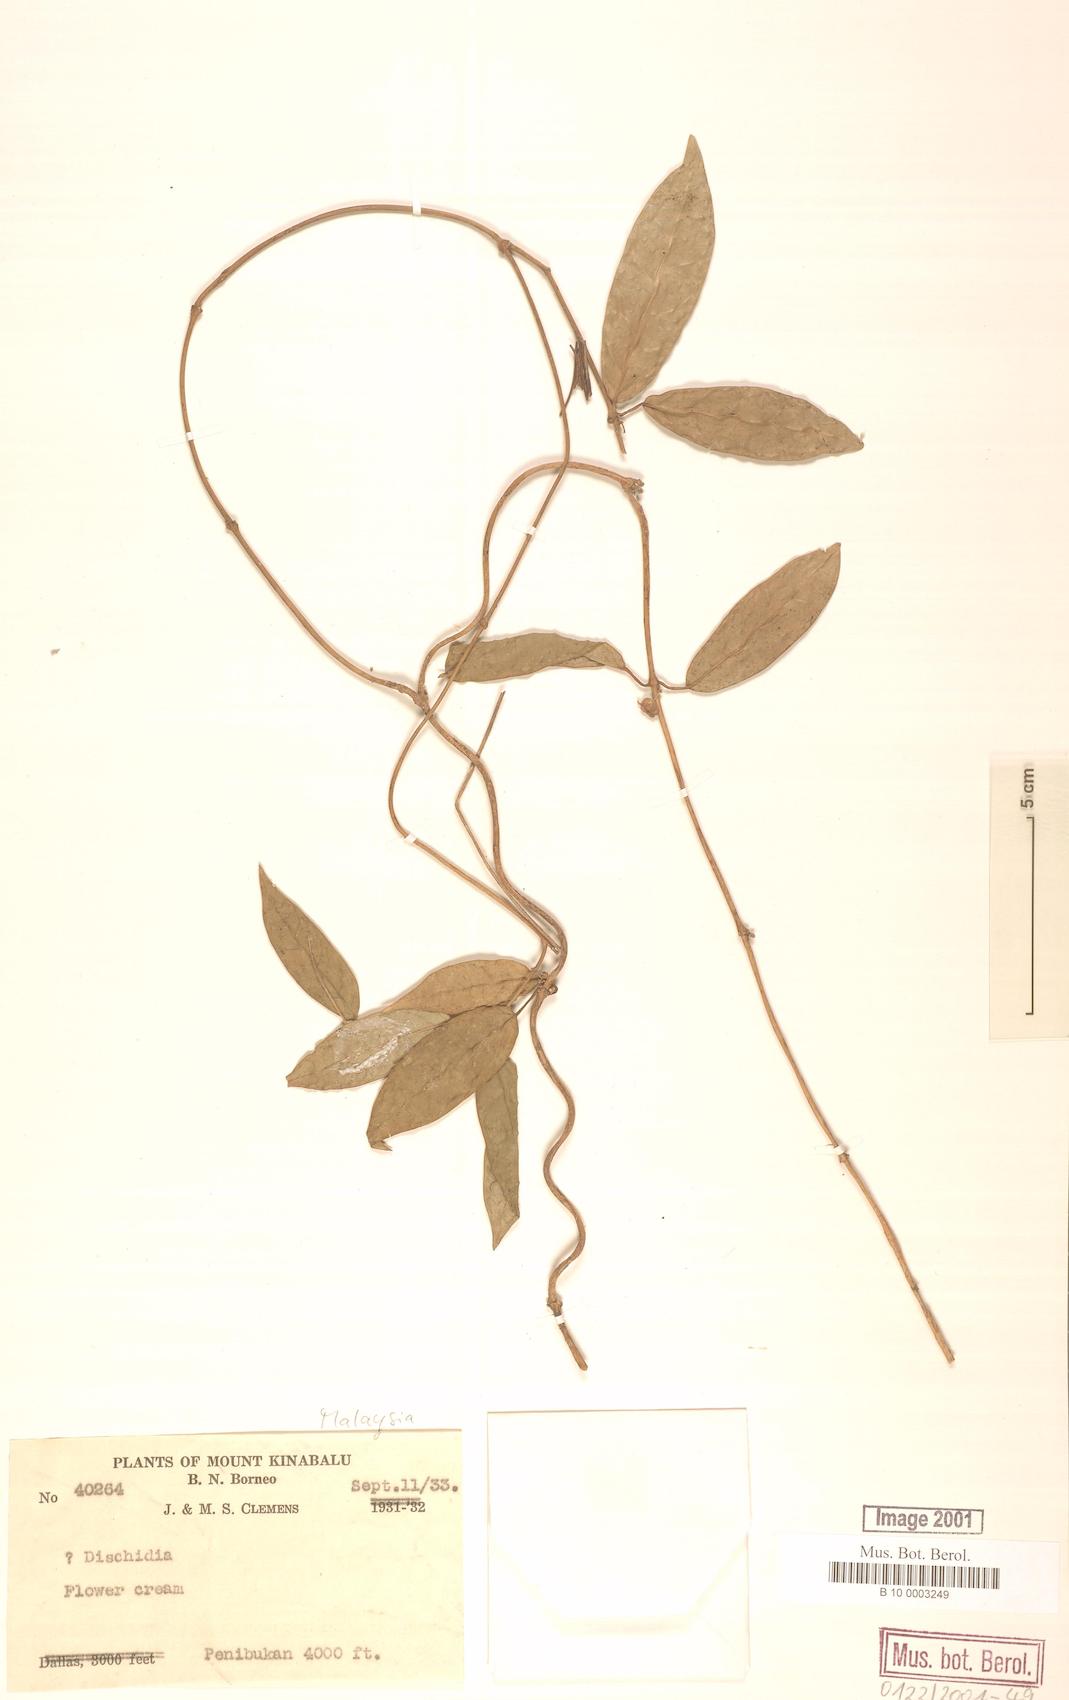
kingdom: Plantae
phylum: Tracheophyta
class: Magnoliopsida
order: Gentianales
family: Apocynaceae
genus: Dischidia
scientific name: Dischidia
